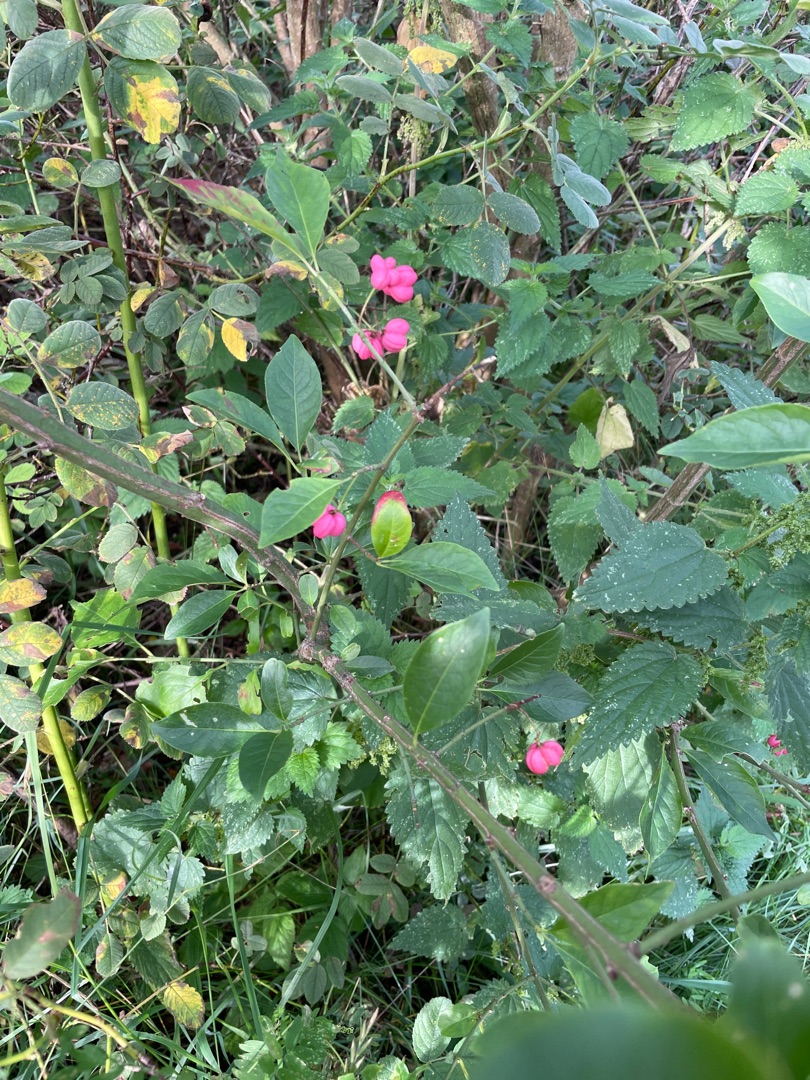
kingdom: Plantae
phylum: Tracheophyta
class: Magnoliopsida
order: Celastrales
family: Celastraceae
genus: Euonymus
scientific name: Euonymus europaeus
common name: Benved
